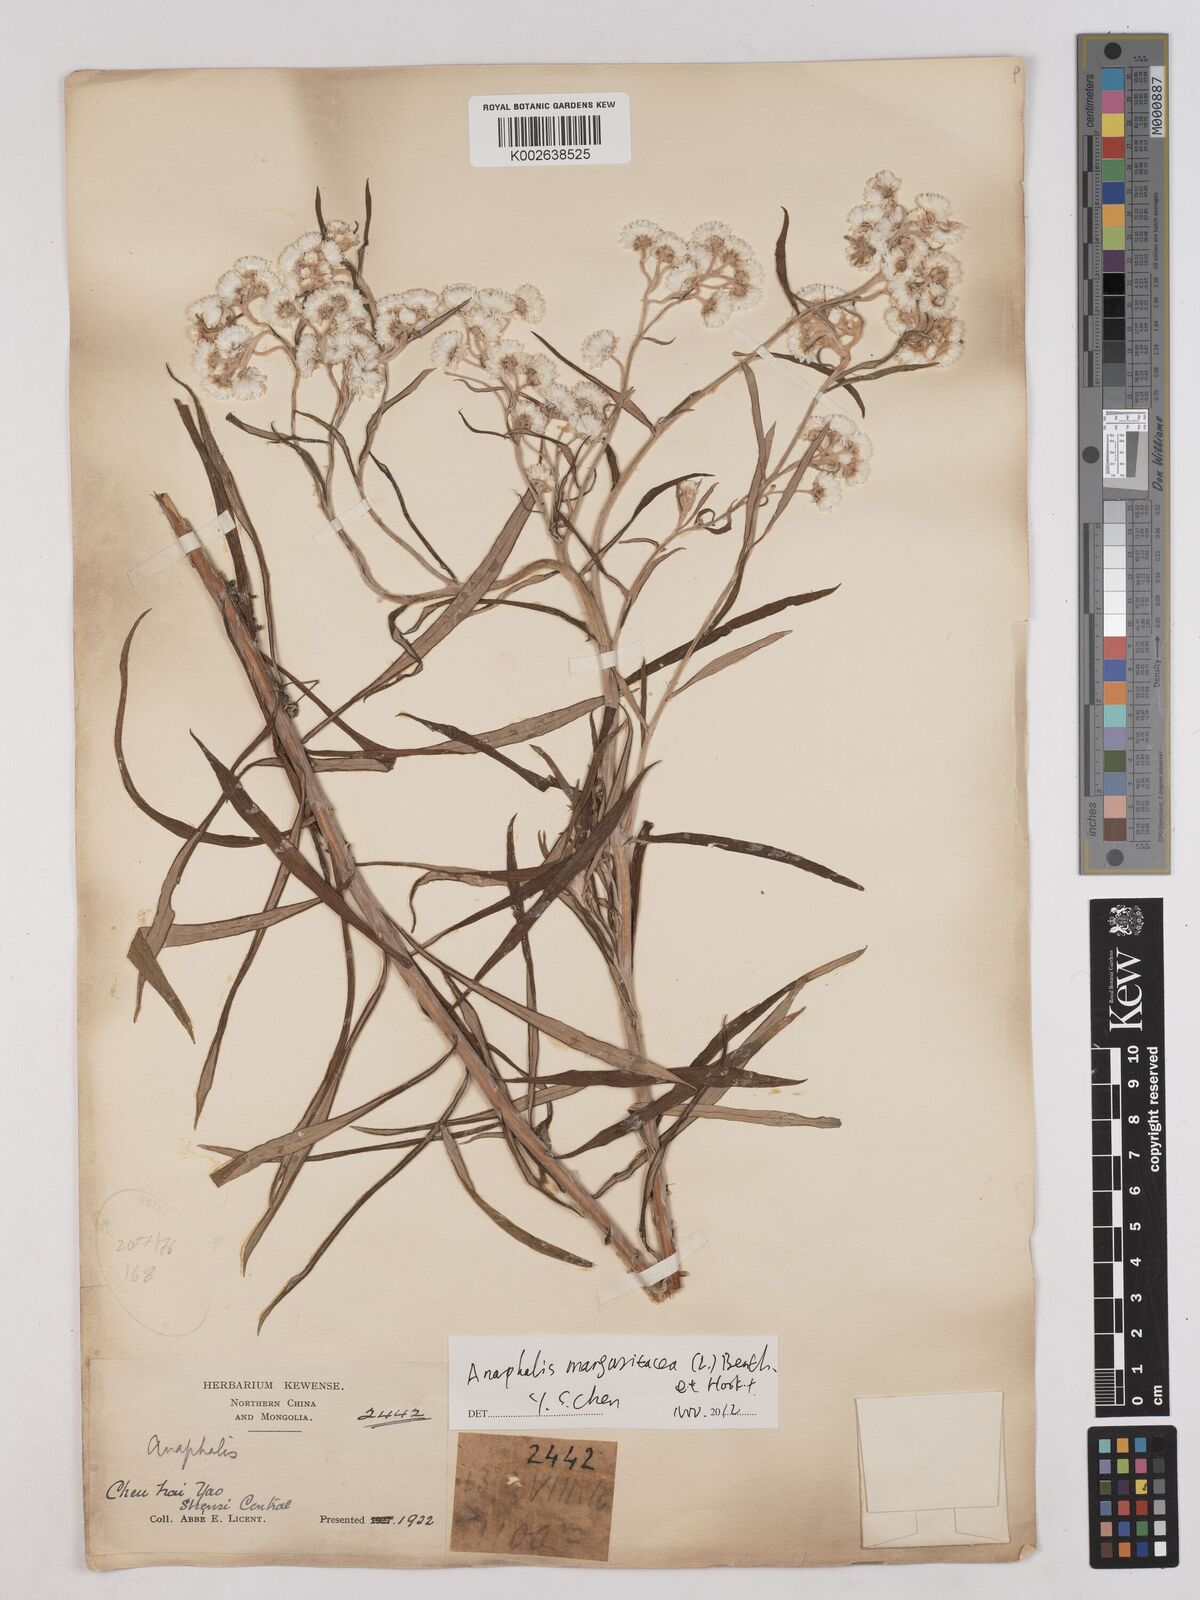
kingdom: Plantae
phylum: Tracheophyta
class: Magnoliopsida
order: Asterales
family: Asteraceae
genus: Anaphalis
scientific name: Anaphalis
